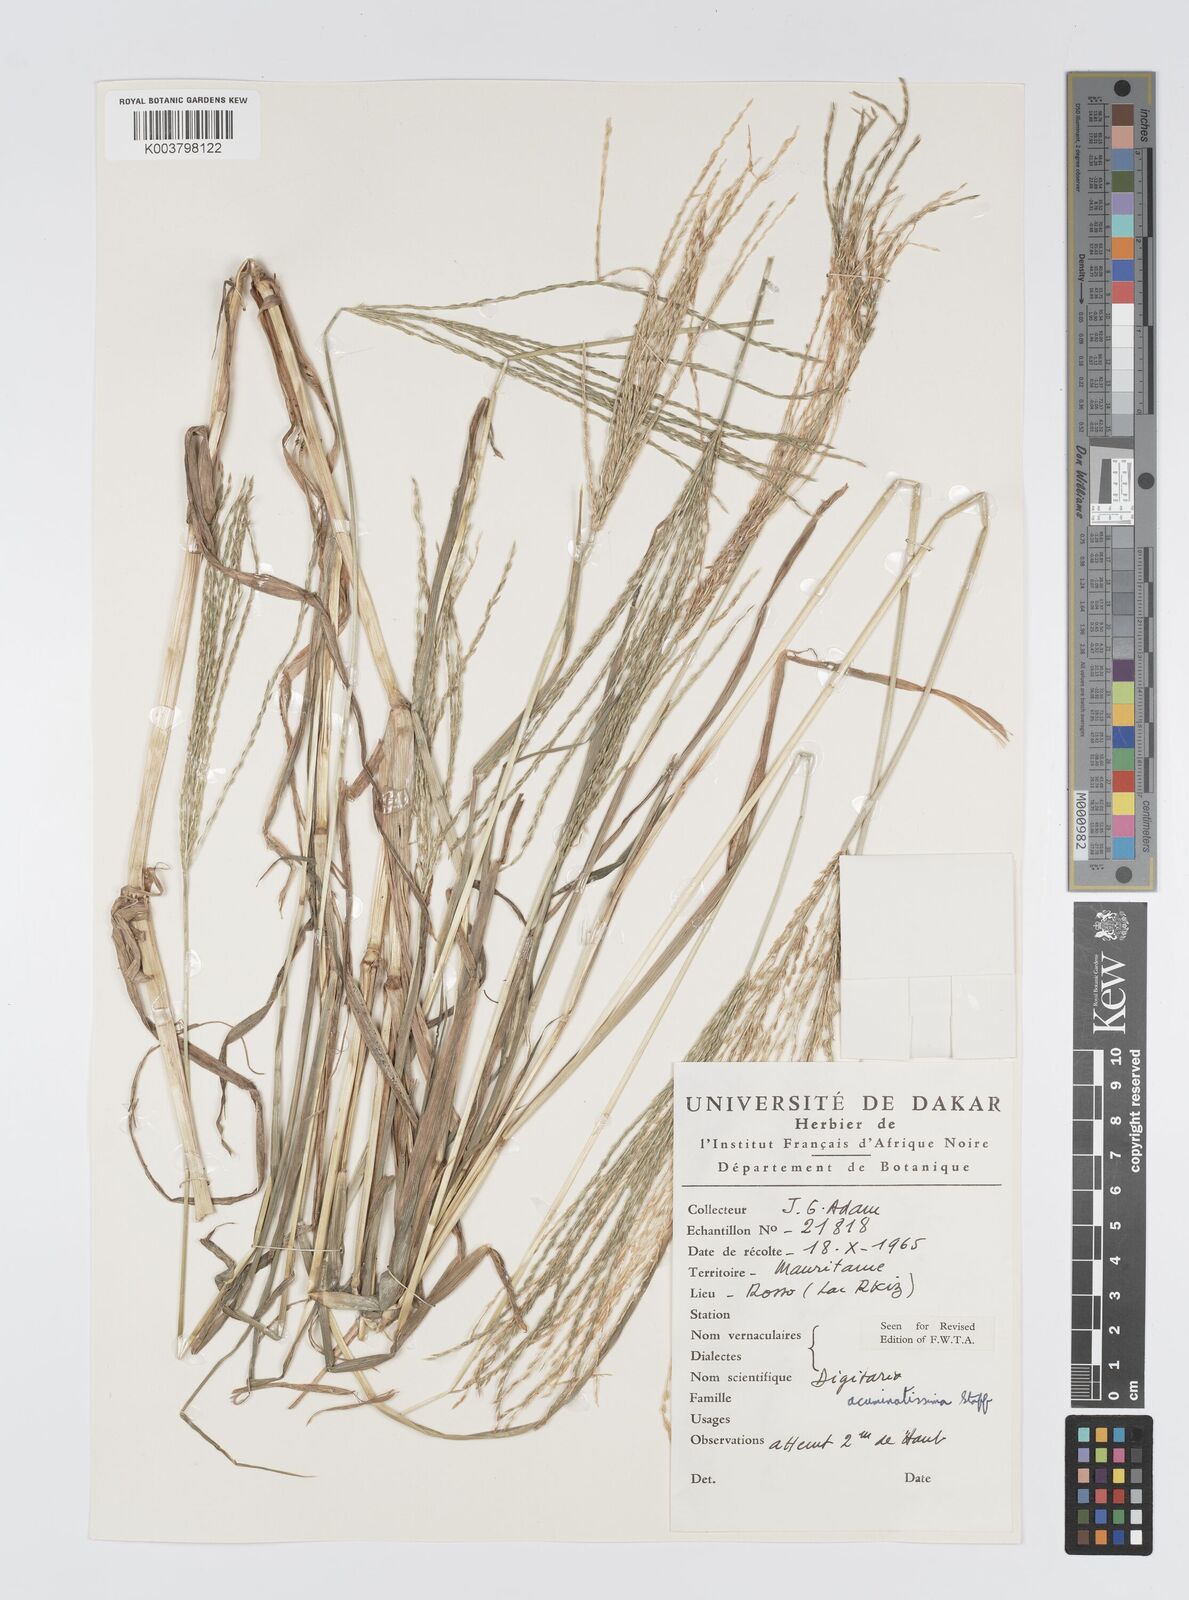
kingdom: Plantae
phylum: Tracheophyta
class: Liliopsida
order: Poales
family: Poaceae
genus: Digitaria
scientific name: Digitaria
